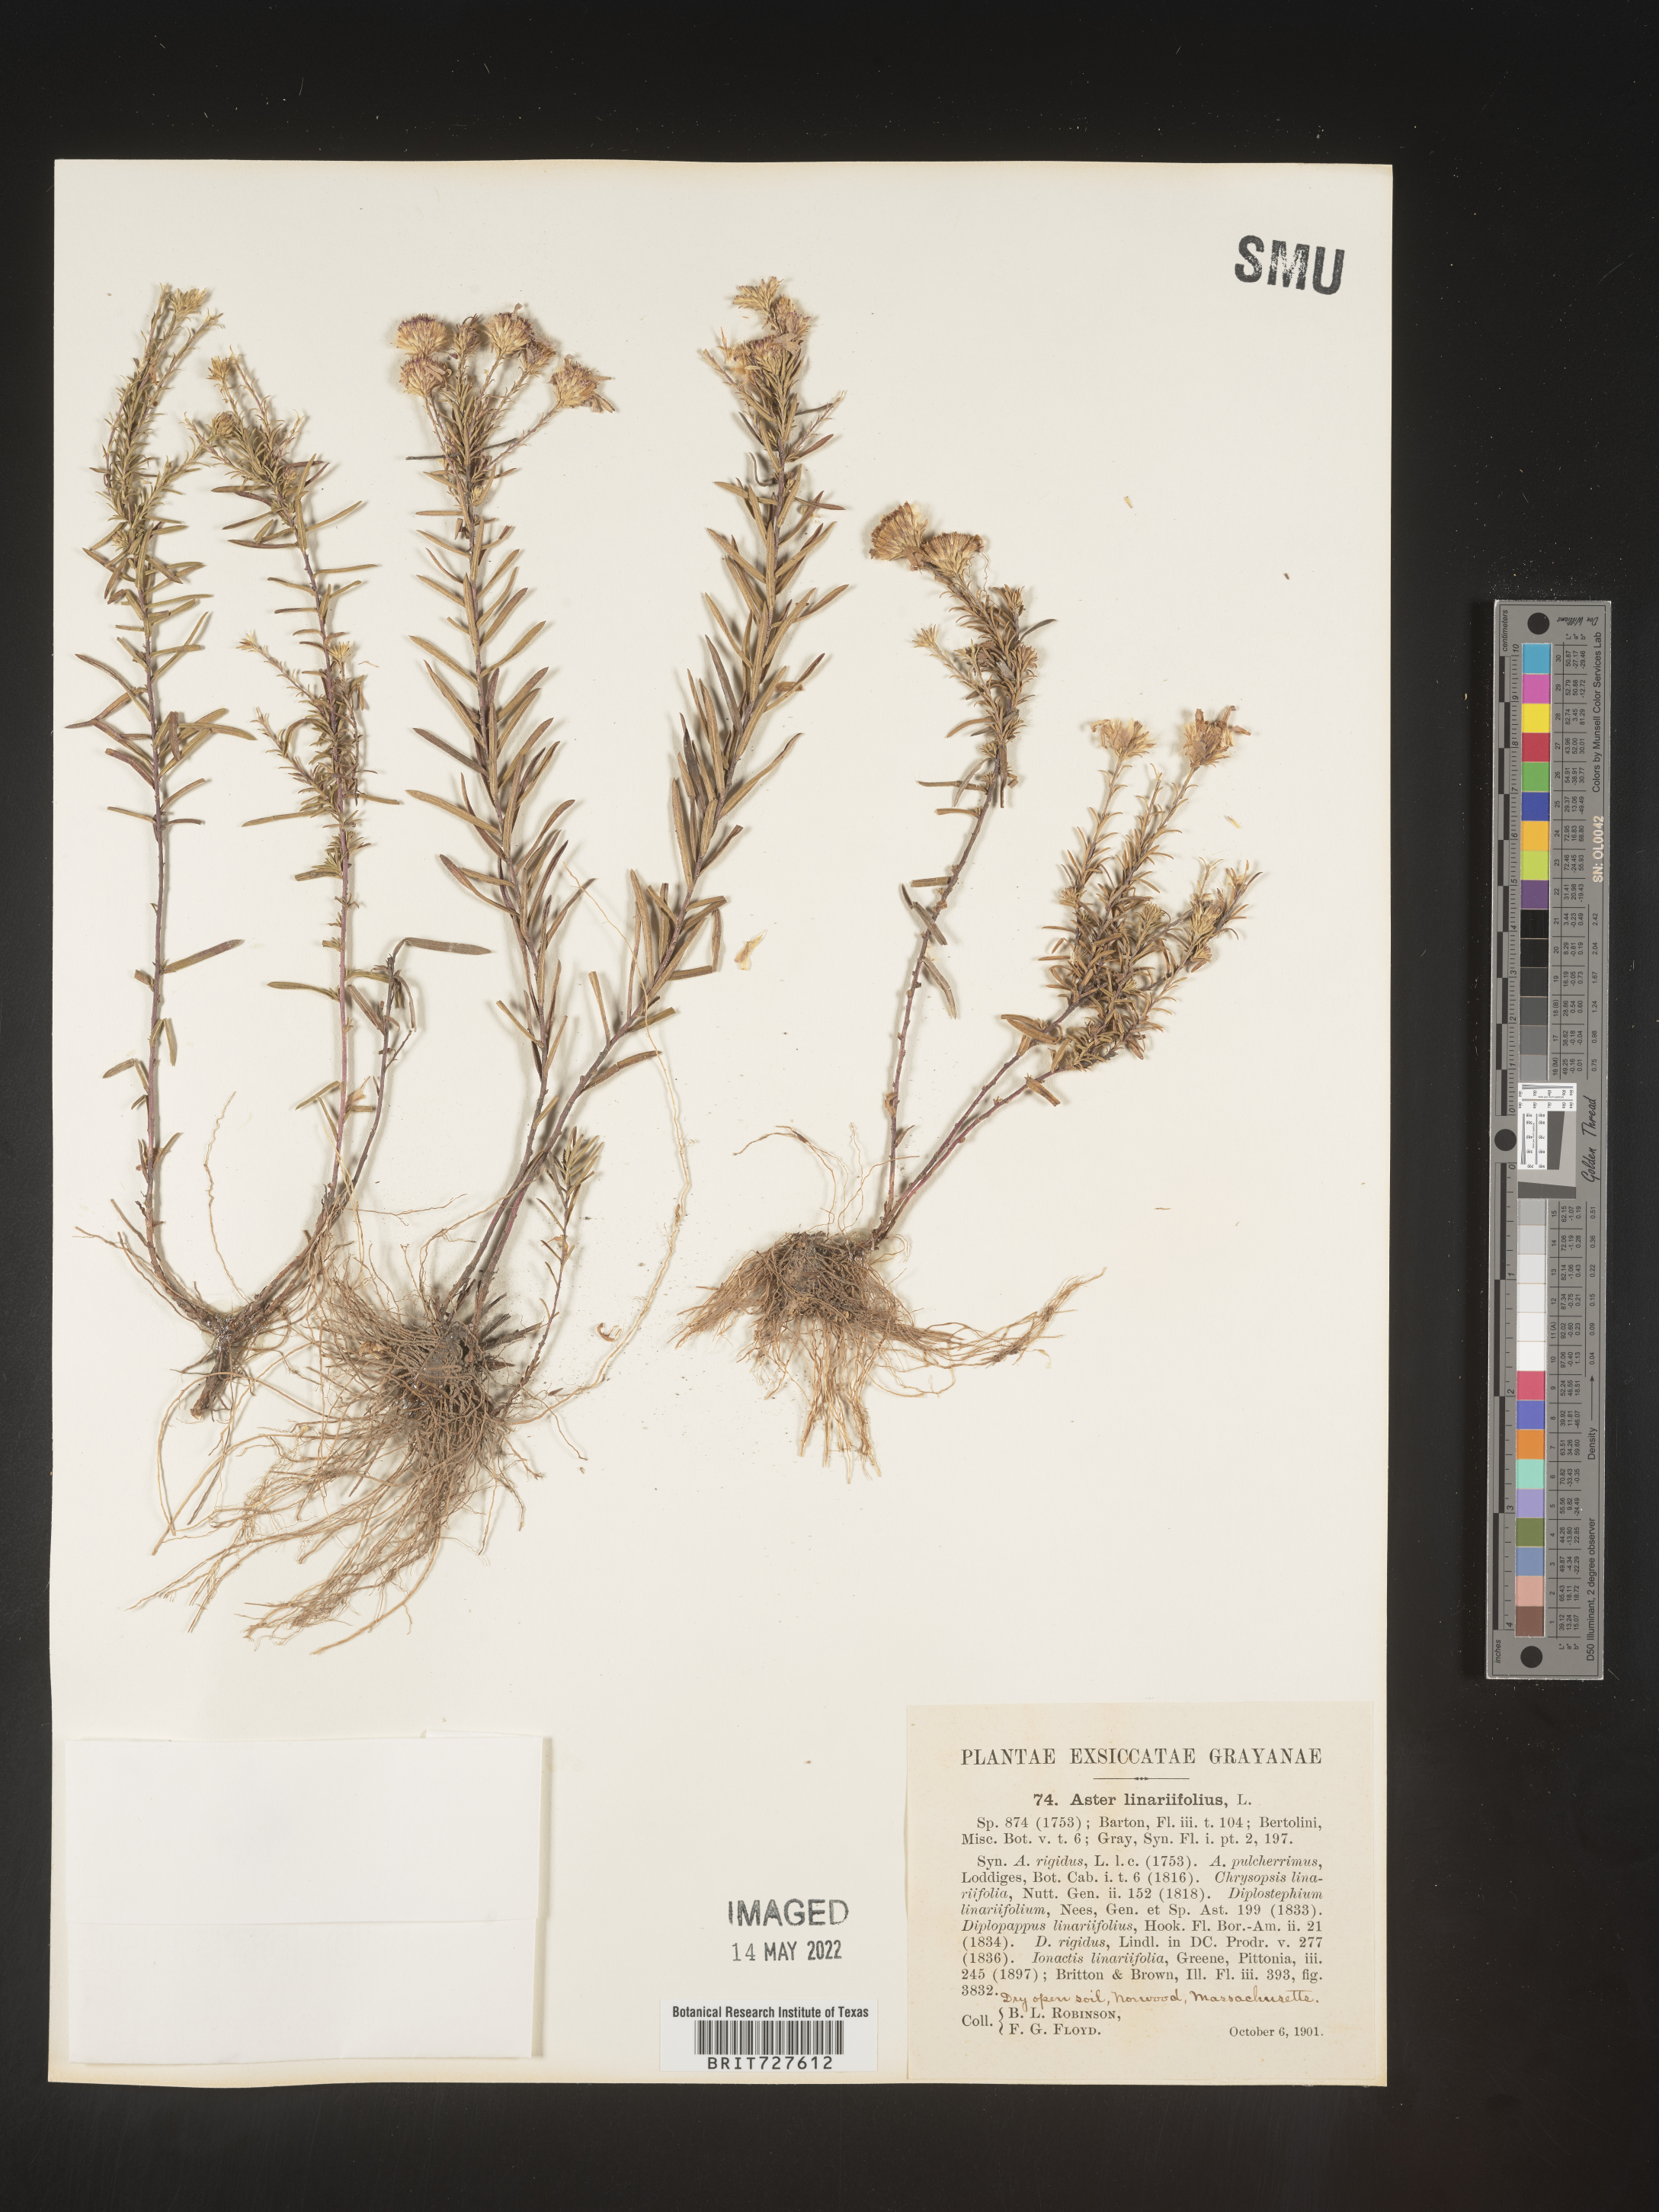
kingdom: Plantae
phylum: Tracheophyta
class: Magnoliopsida
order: Asterales
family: Asteraceae
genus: Ionactis
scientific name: Ionactis linariifolia
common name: Flax-leaf aster
